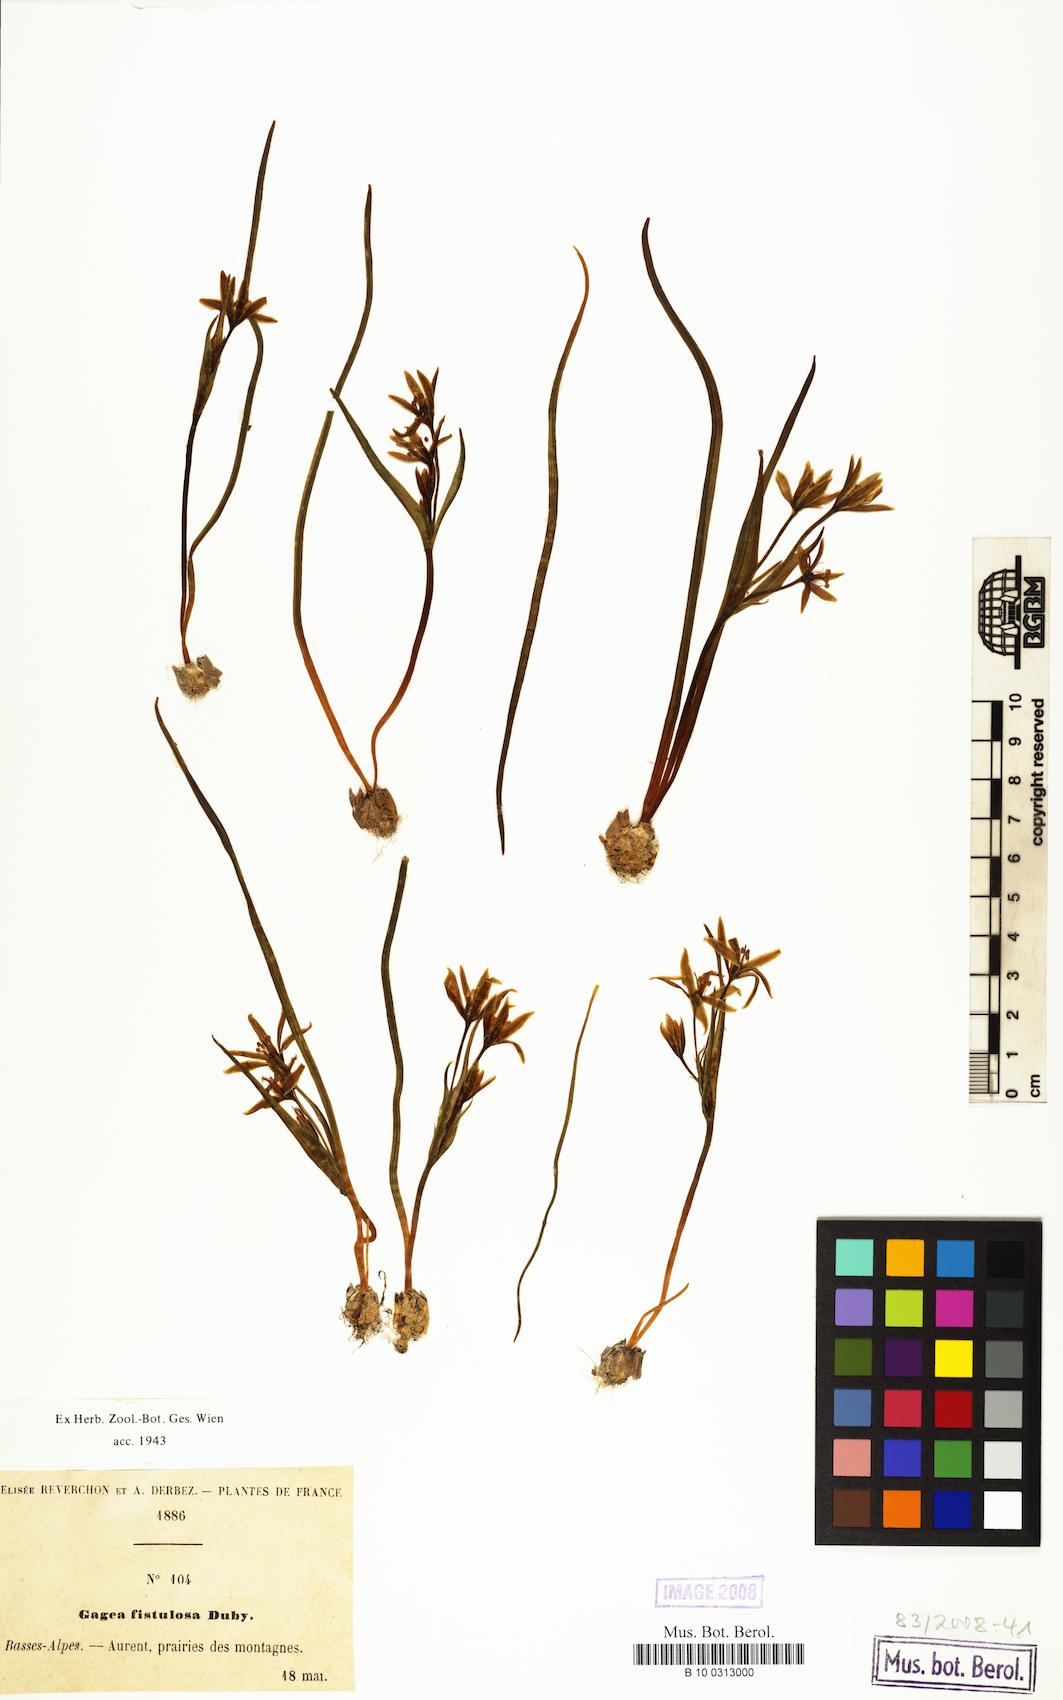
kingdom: Plantae
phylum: Tracheophyta
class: Liliopsida
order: Liliales
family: Liliaceae
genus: Gagea
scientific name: Gagea
